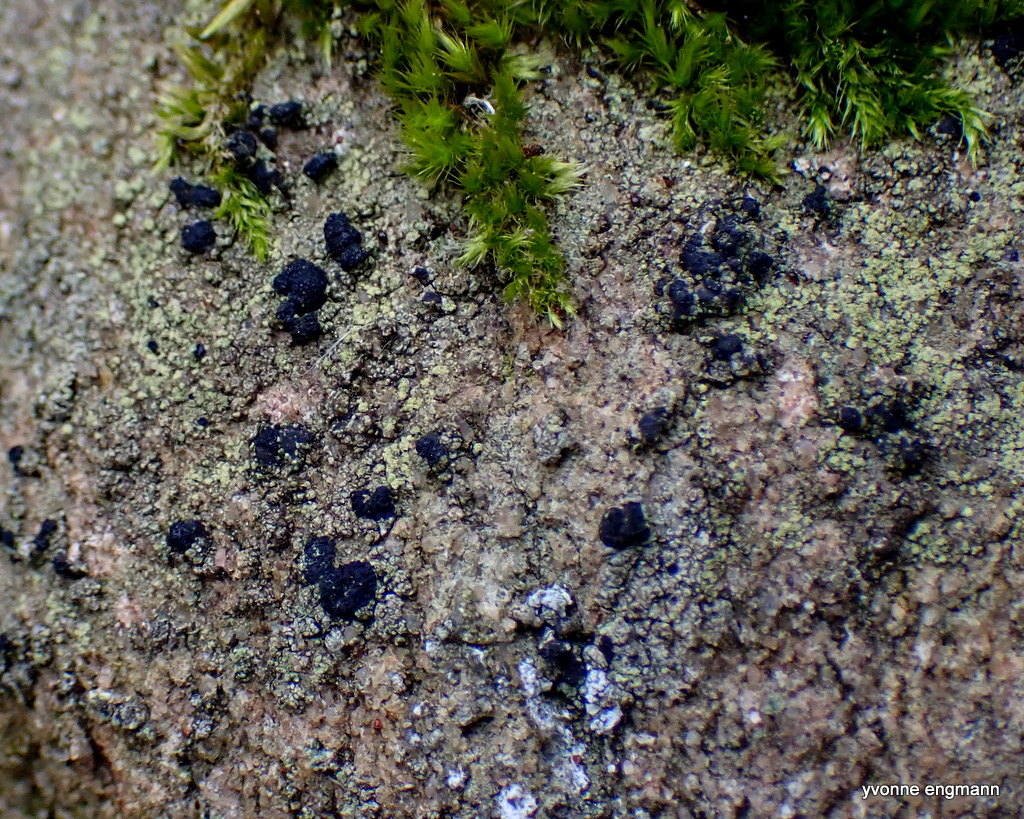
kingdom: Fungi
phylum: Ascomycota
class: Lecanoromycetes
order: Lecanorales
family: Lecanoraceae
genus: Lecidella
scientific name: Lecidella scabra
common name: skurvet skivelav
